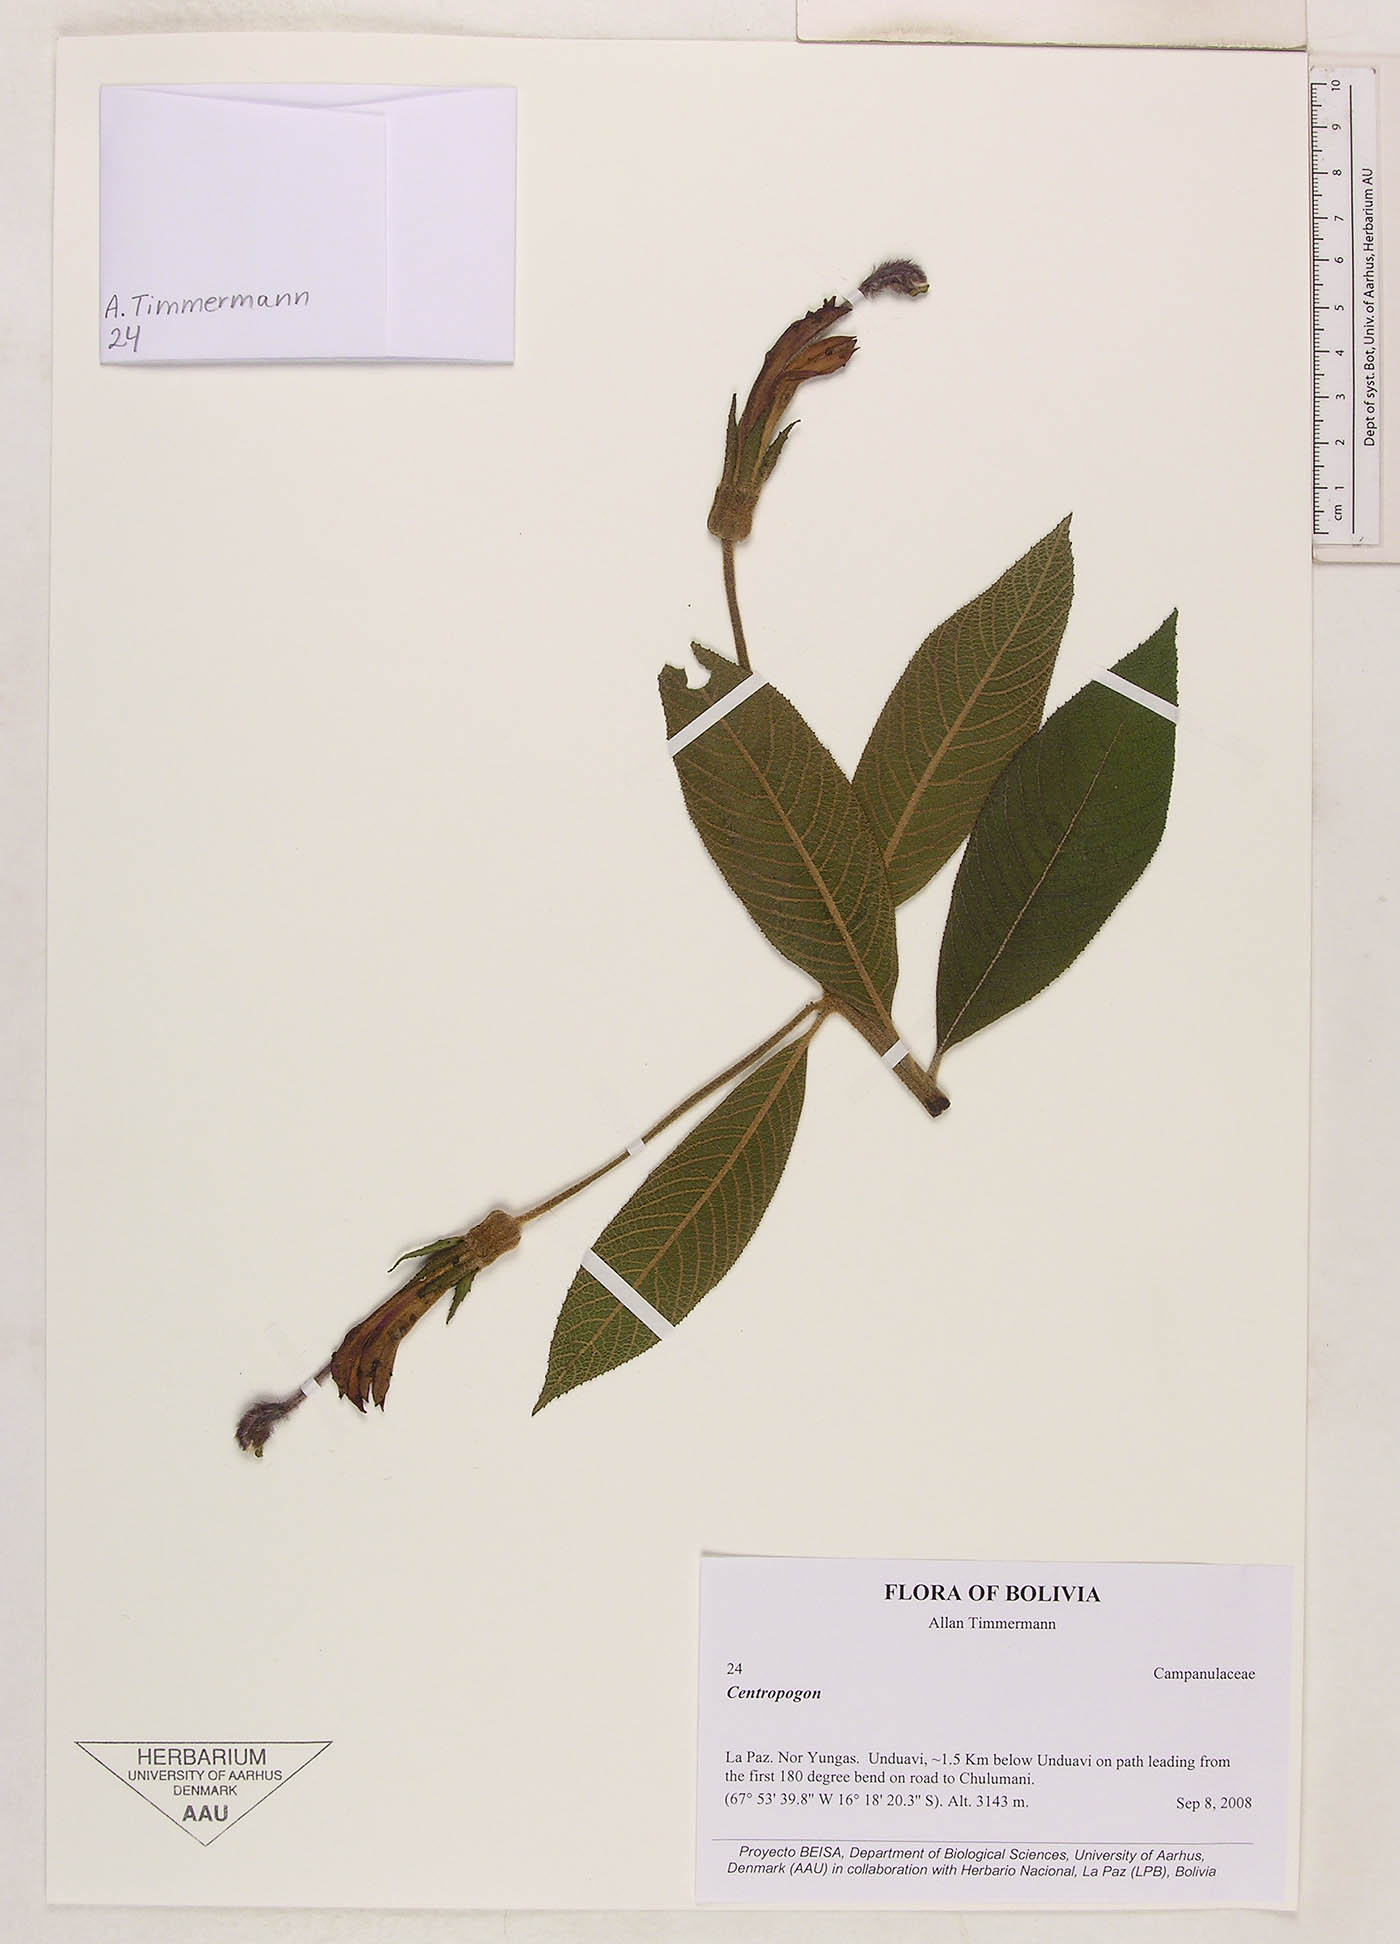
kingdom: Plantae
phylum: Tracheophyta
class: Magnoliopsida
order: Asterales
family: Campanulaceae
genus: Centropogon
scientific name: Centropogon
